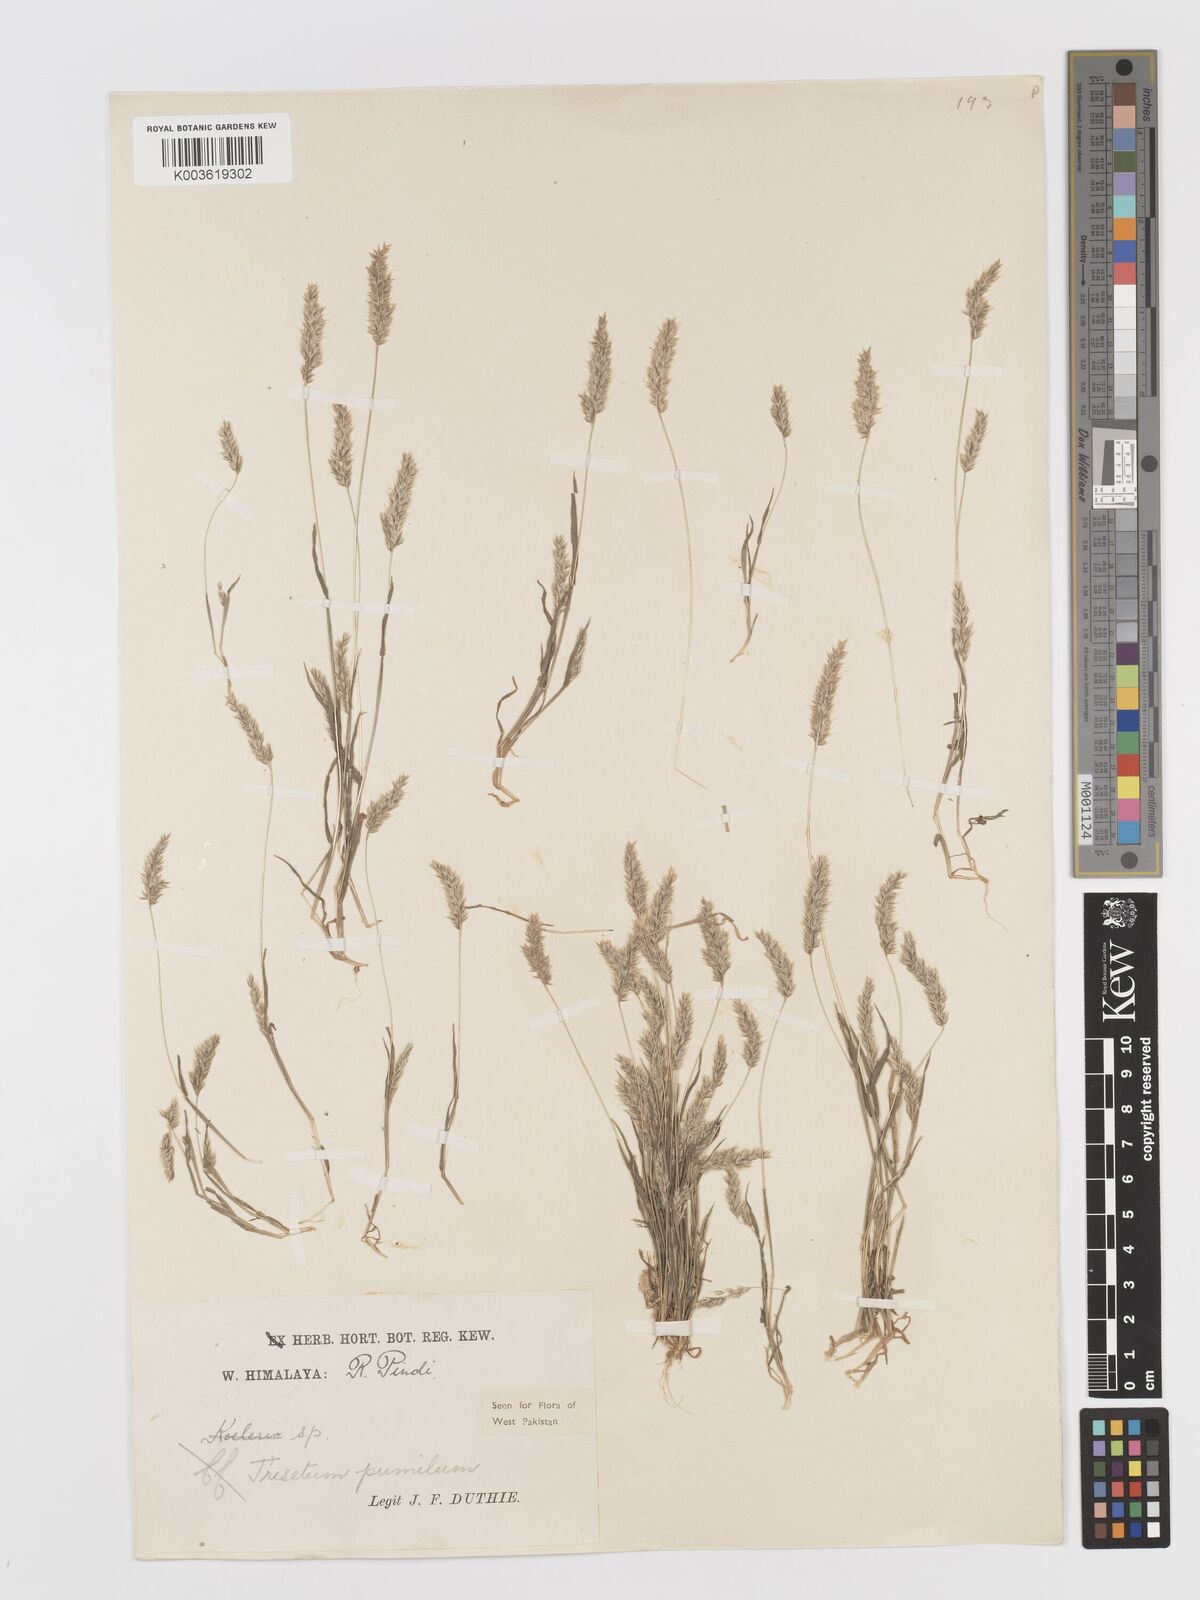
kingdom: Plantae
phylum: Tracheophyta
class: Liliopsida
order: Poales
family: Poaceae
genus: Rostraria
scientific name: Rostraria pumila
